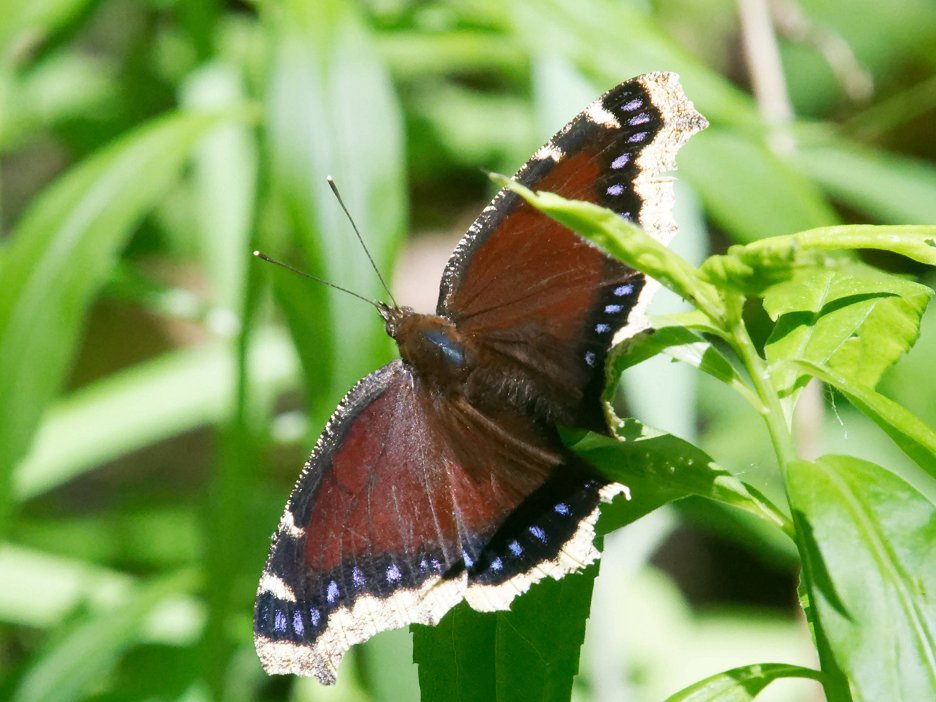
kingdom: Animalia
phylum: Arthropoda
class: Insecta
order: Lepidoptera
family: Nymphalidae
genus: Nymphalis
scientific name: Nymphalis antiopa
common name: Mourning Cloak
